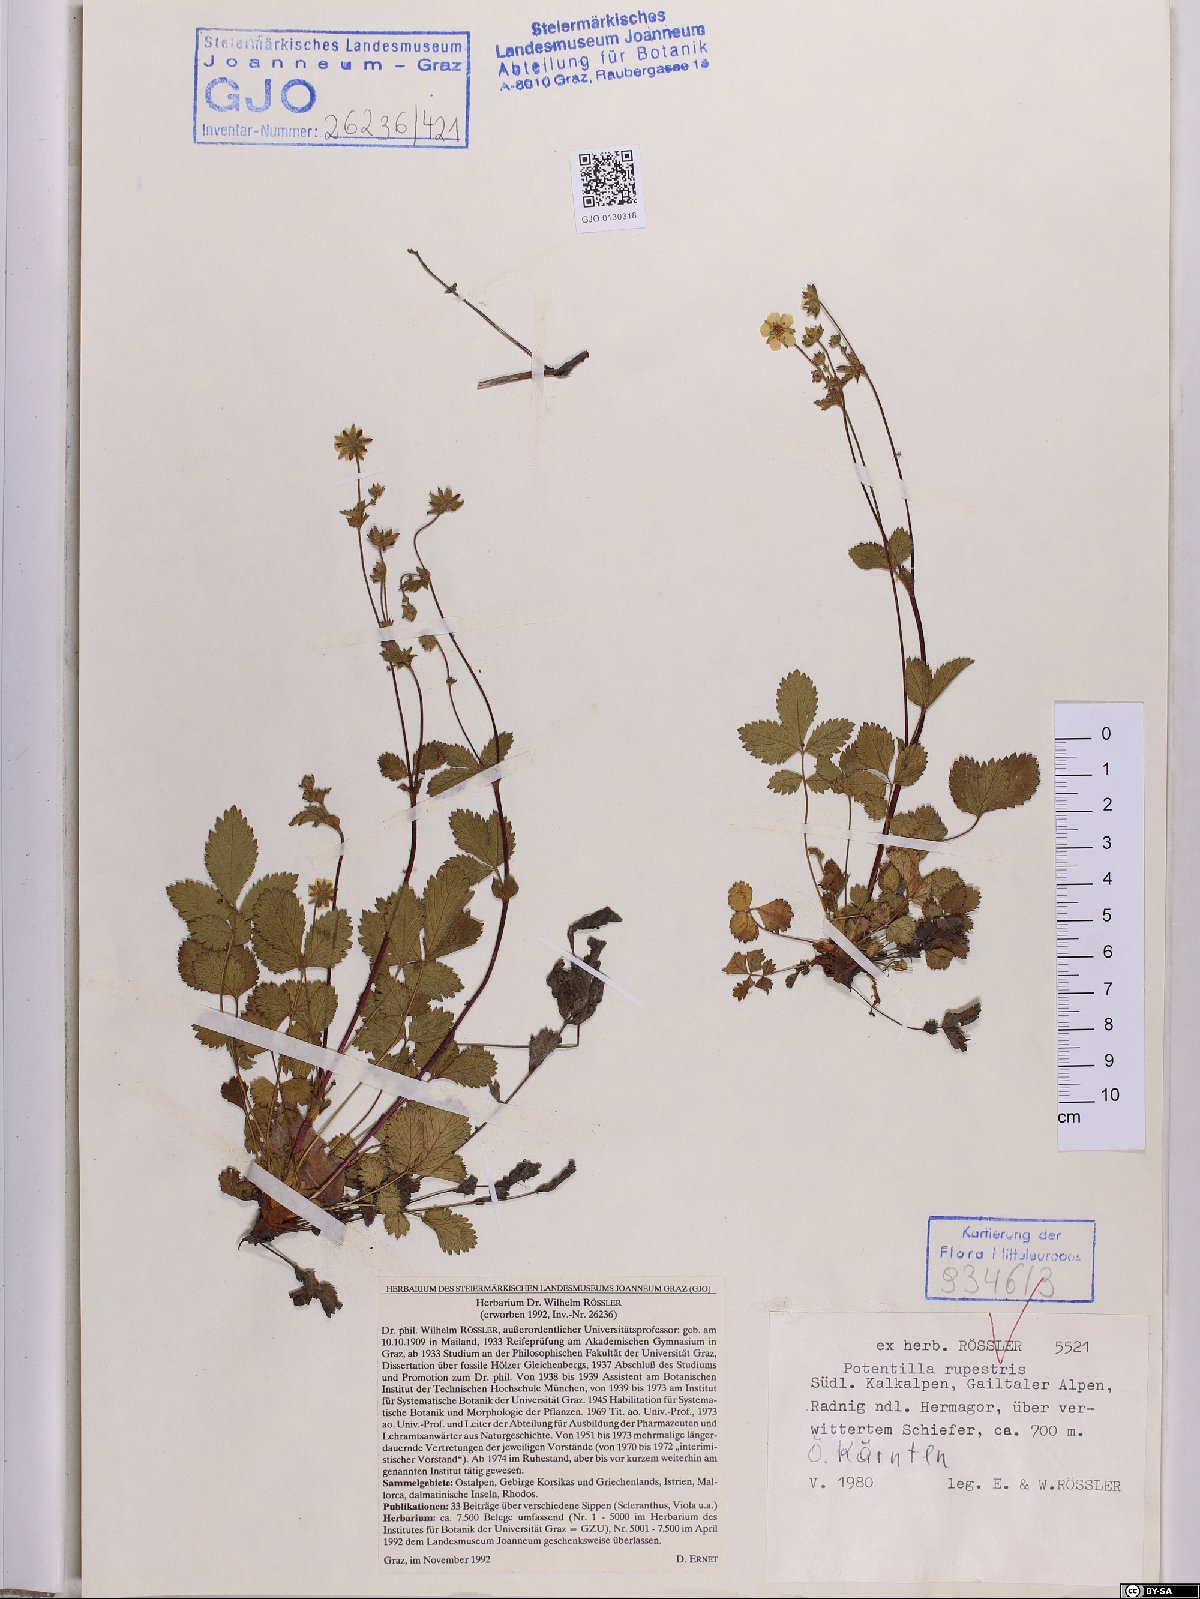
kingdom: Plantae
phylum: Tracheophyta
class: Magnoliopsida
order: Rosales
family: Rosaceae
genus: Drymocallis
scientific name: Drymocallis rupestris
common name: Rock cinquefoil
